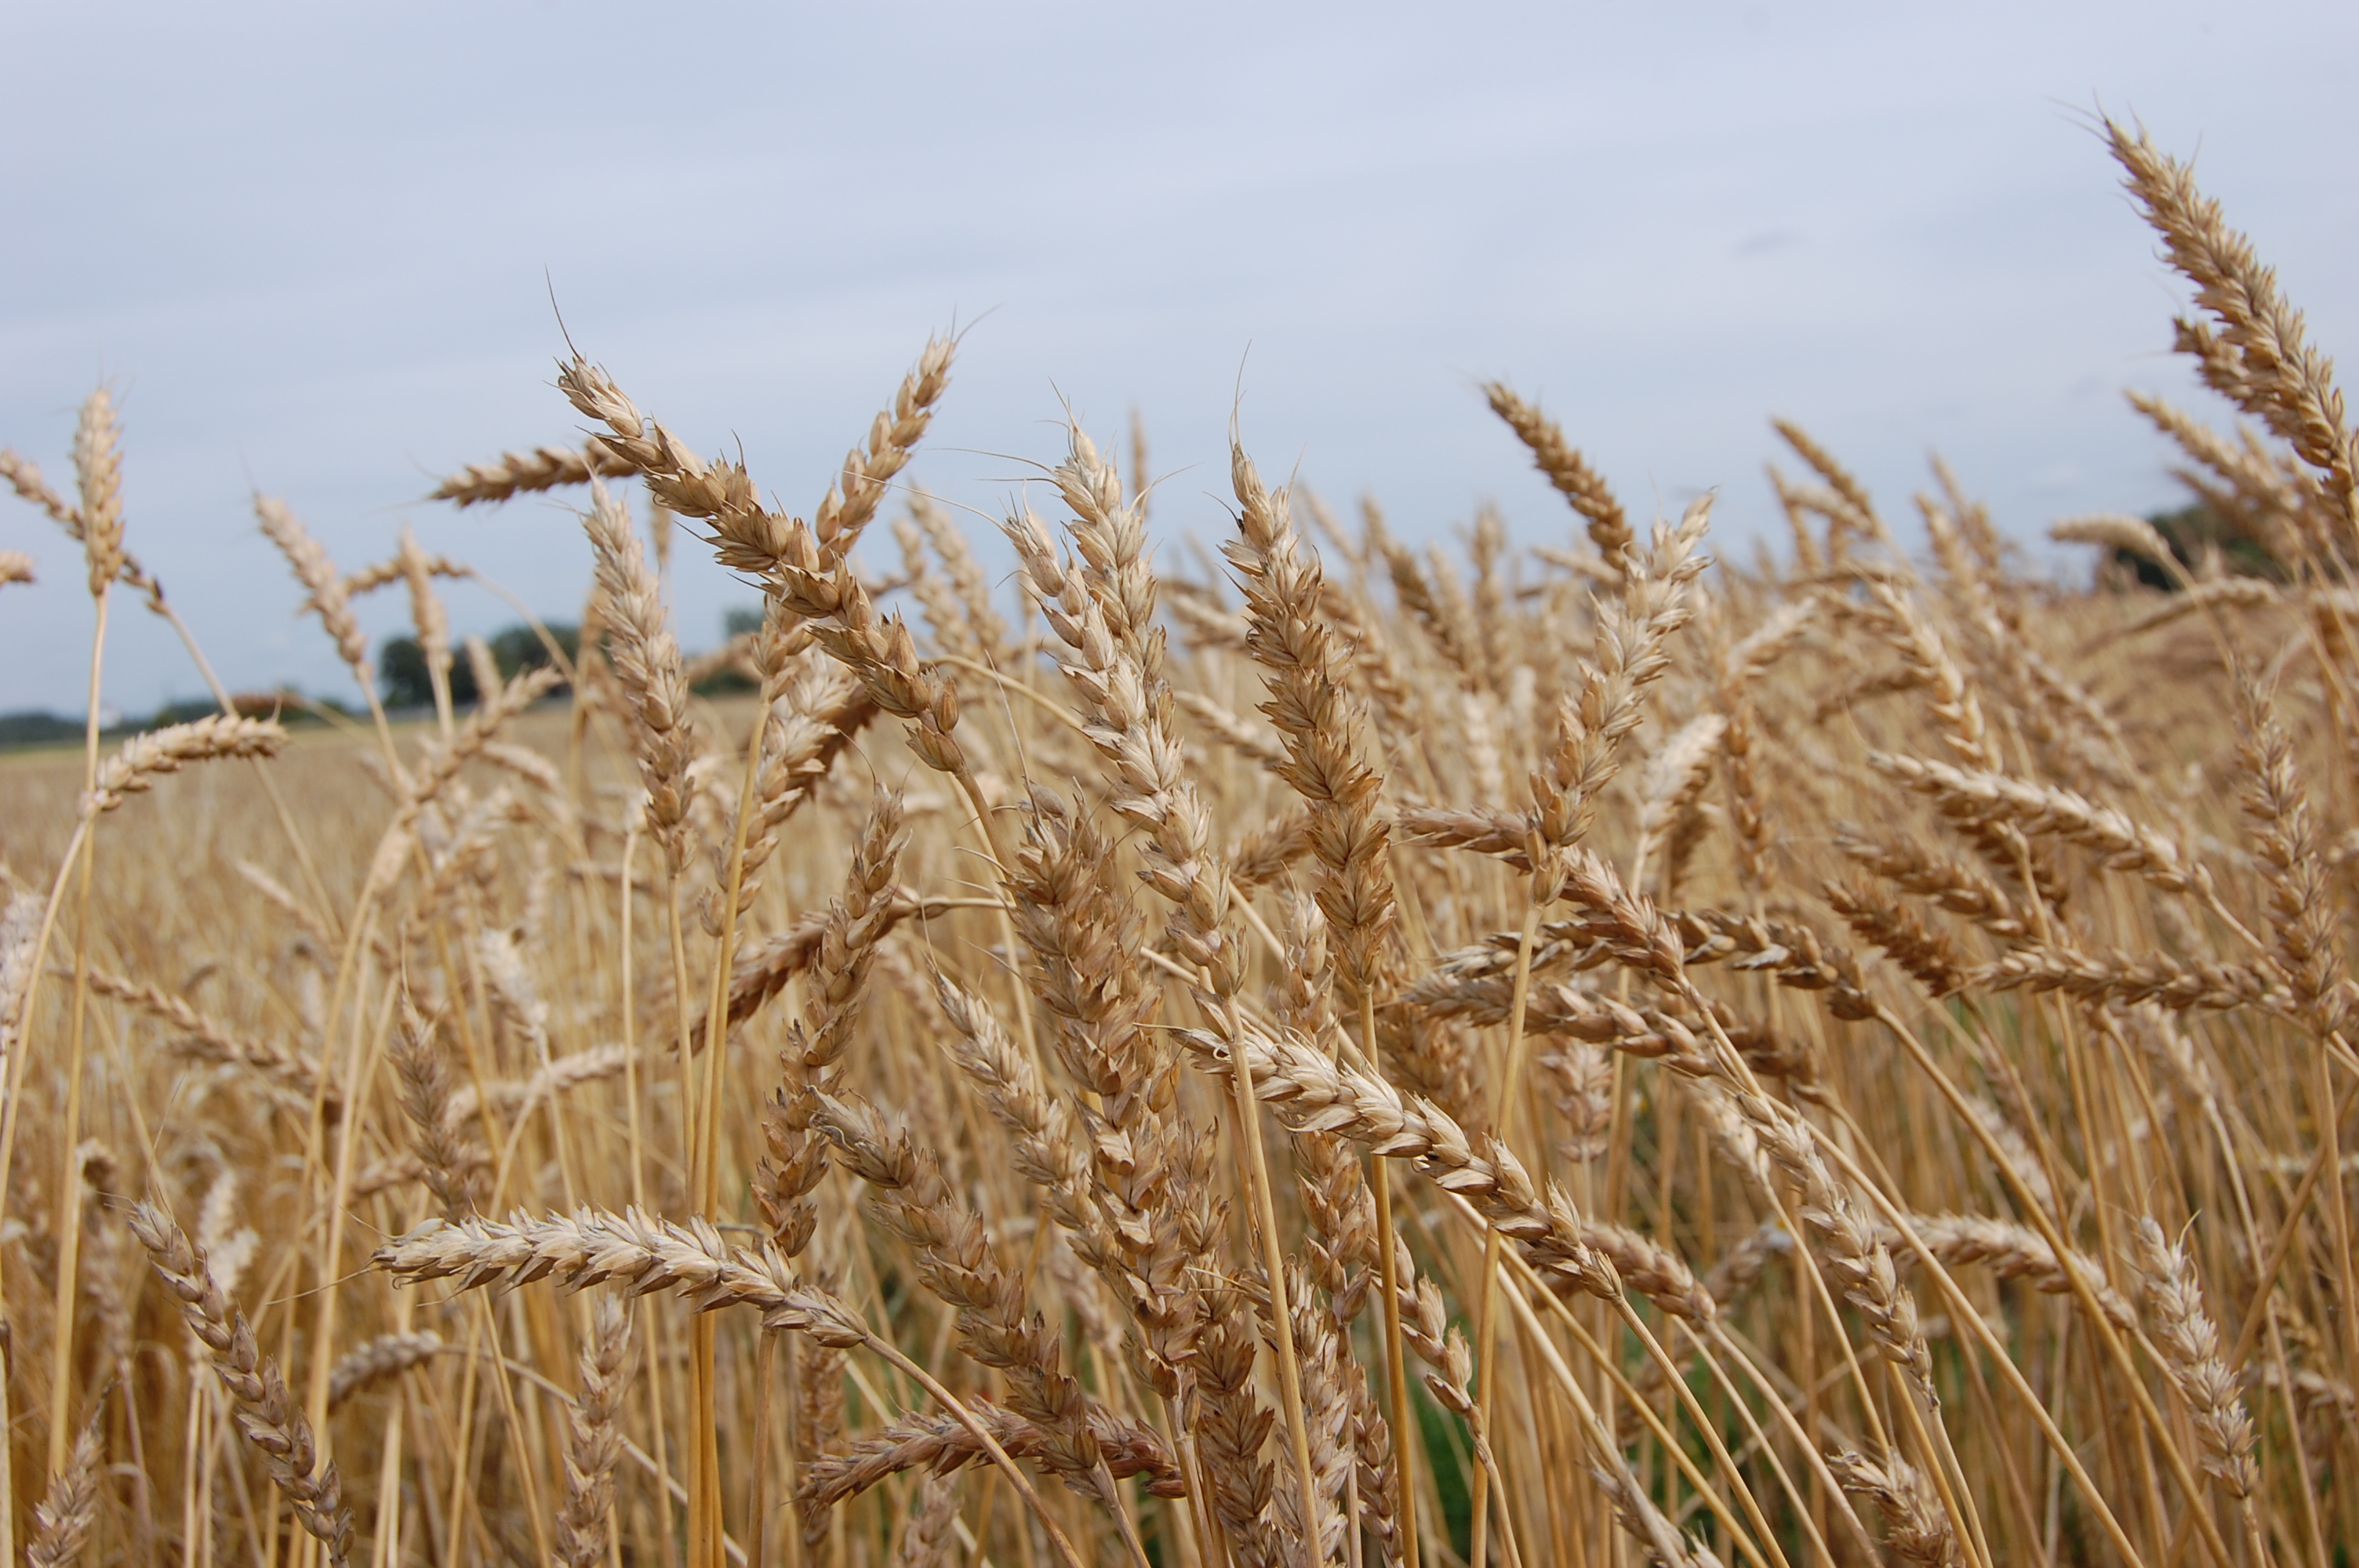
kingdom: Plantae
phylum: Tracheophyta
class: Liliopsida
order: Poales
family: Poaceae
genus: Triticum
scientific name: Triticum aestivum
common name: Common wheat
